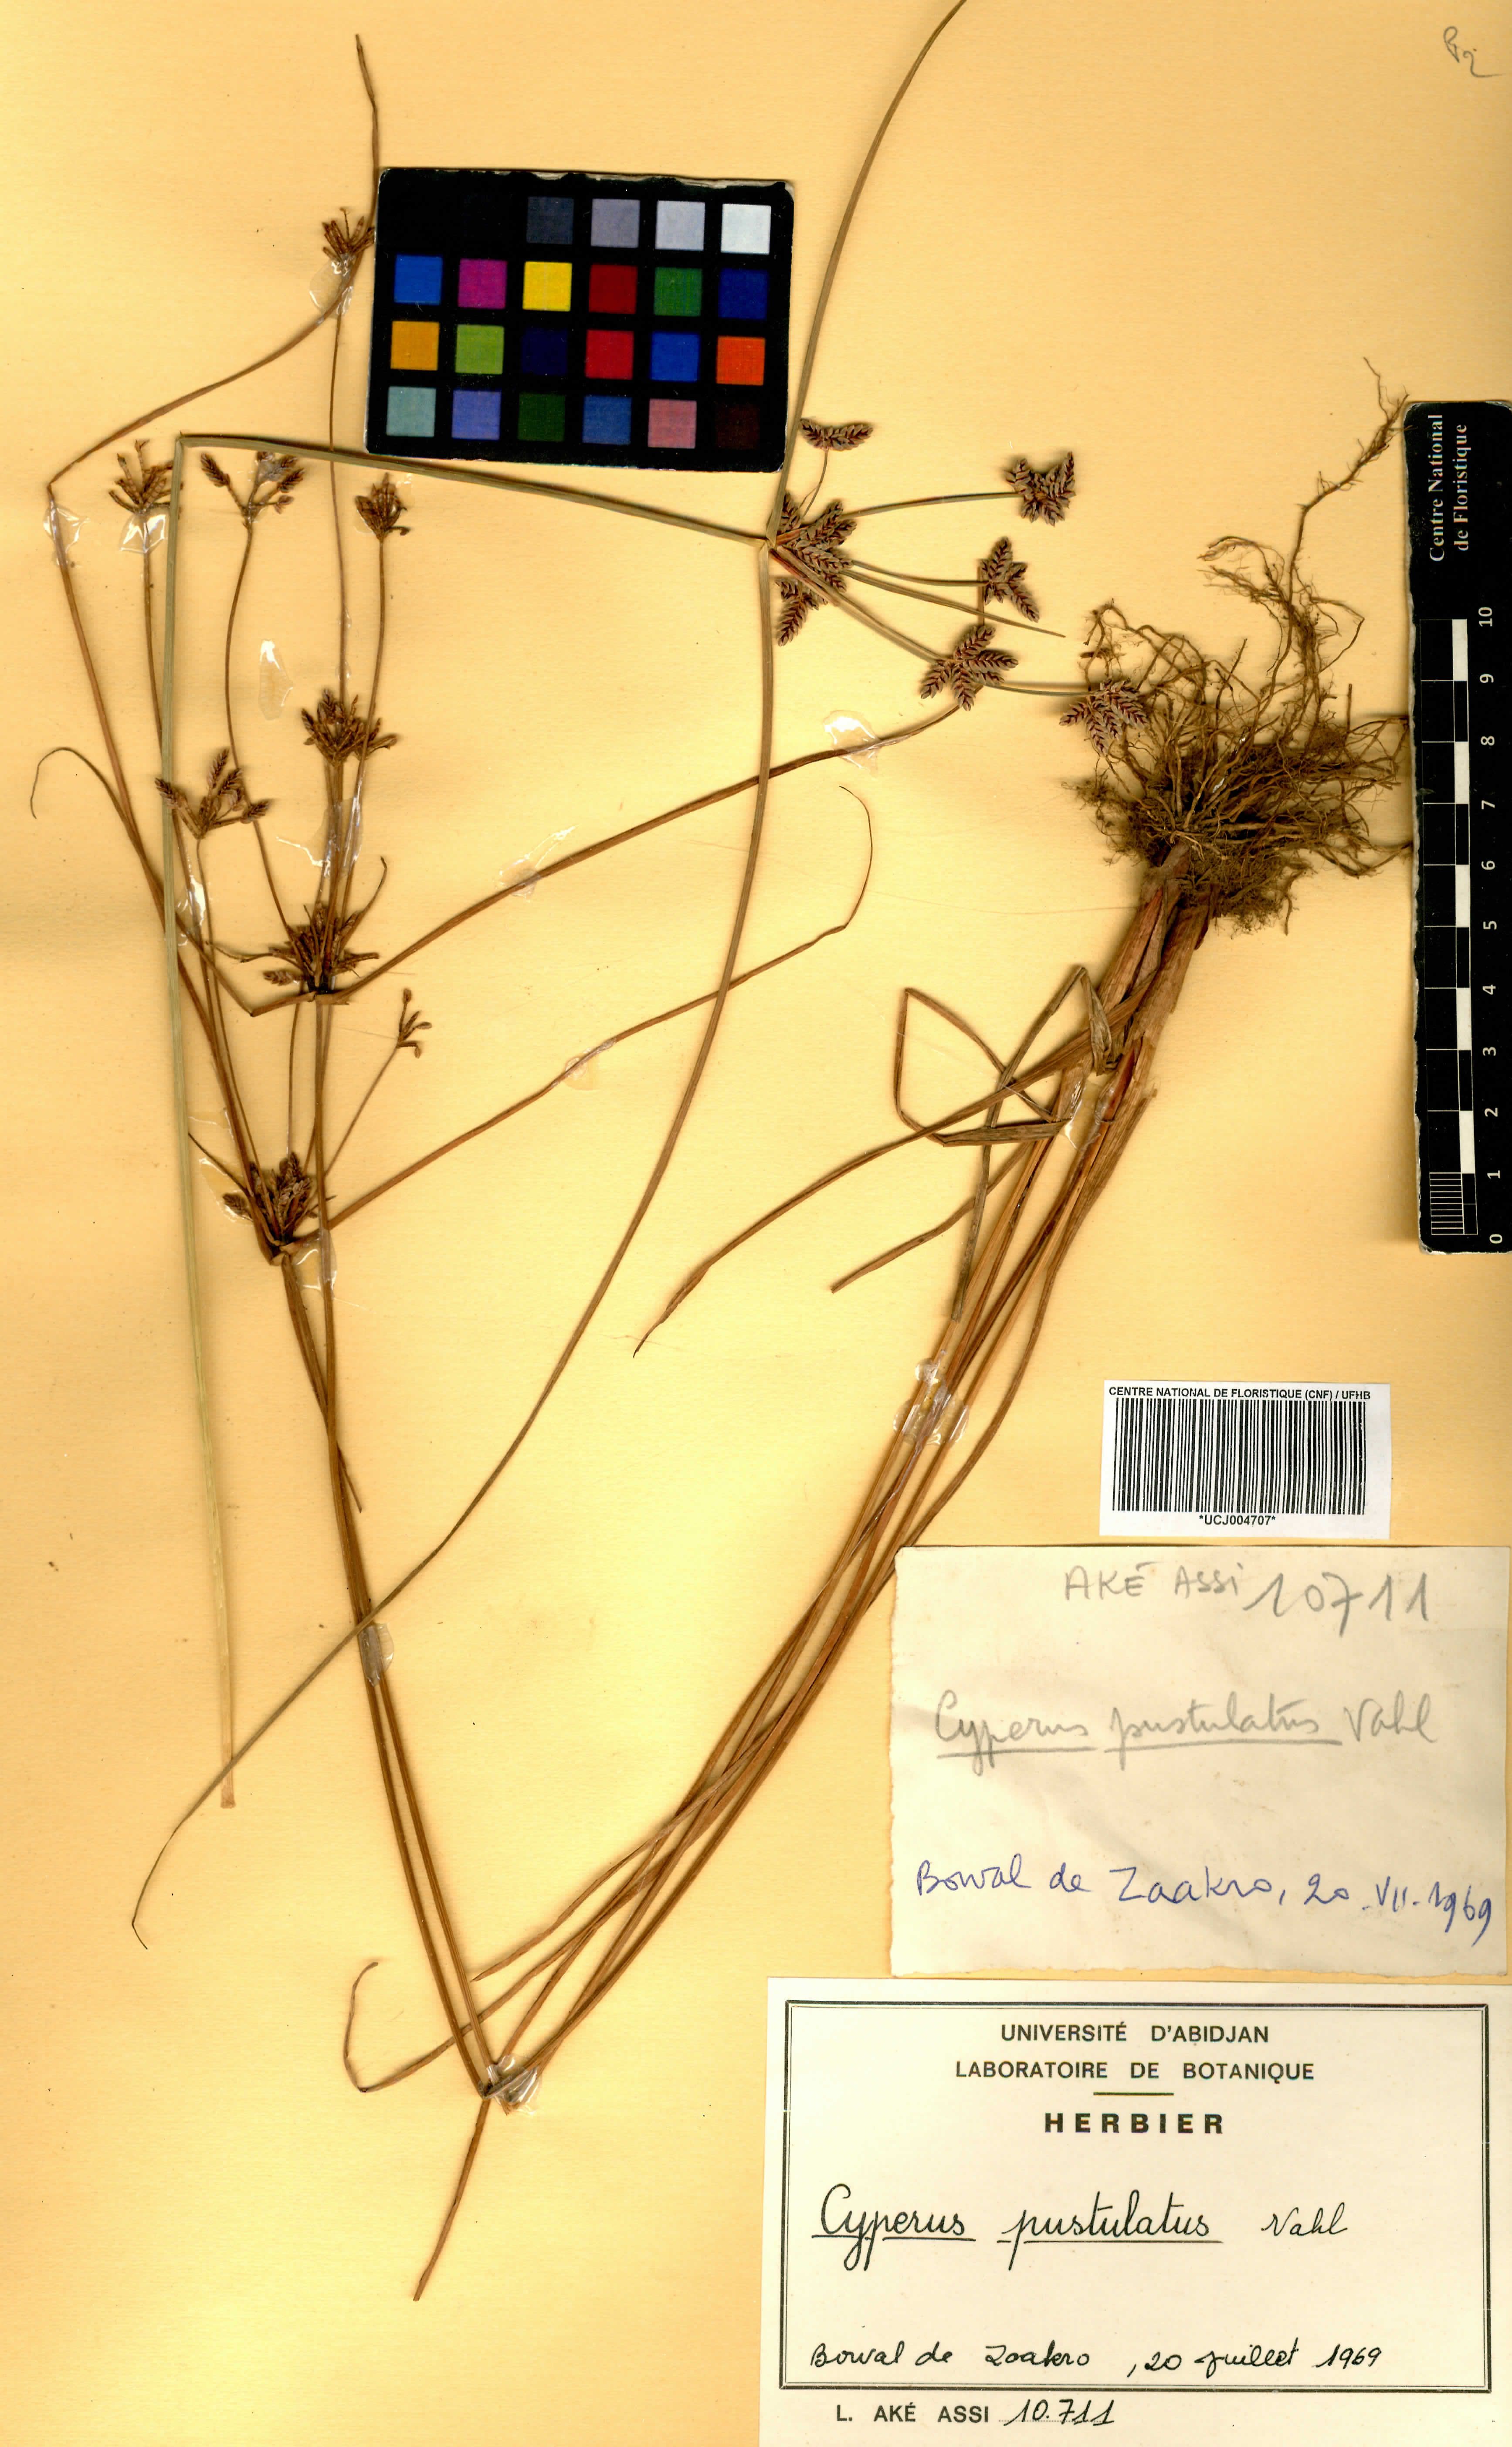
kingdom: Plantae
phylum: Tracheophyta
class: Liliopsida
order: Poales
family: Cyperaceae
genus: Cyperus
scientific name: Cyperus pustulatus
